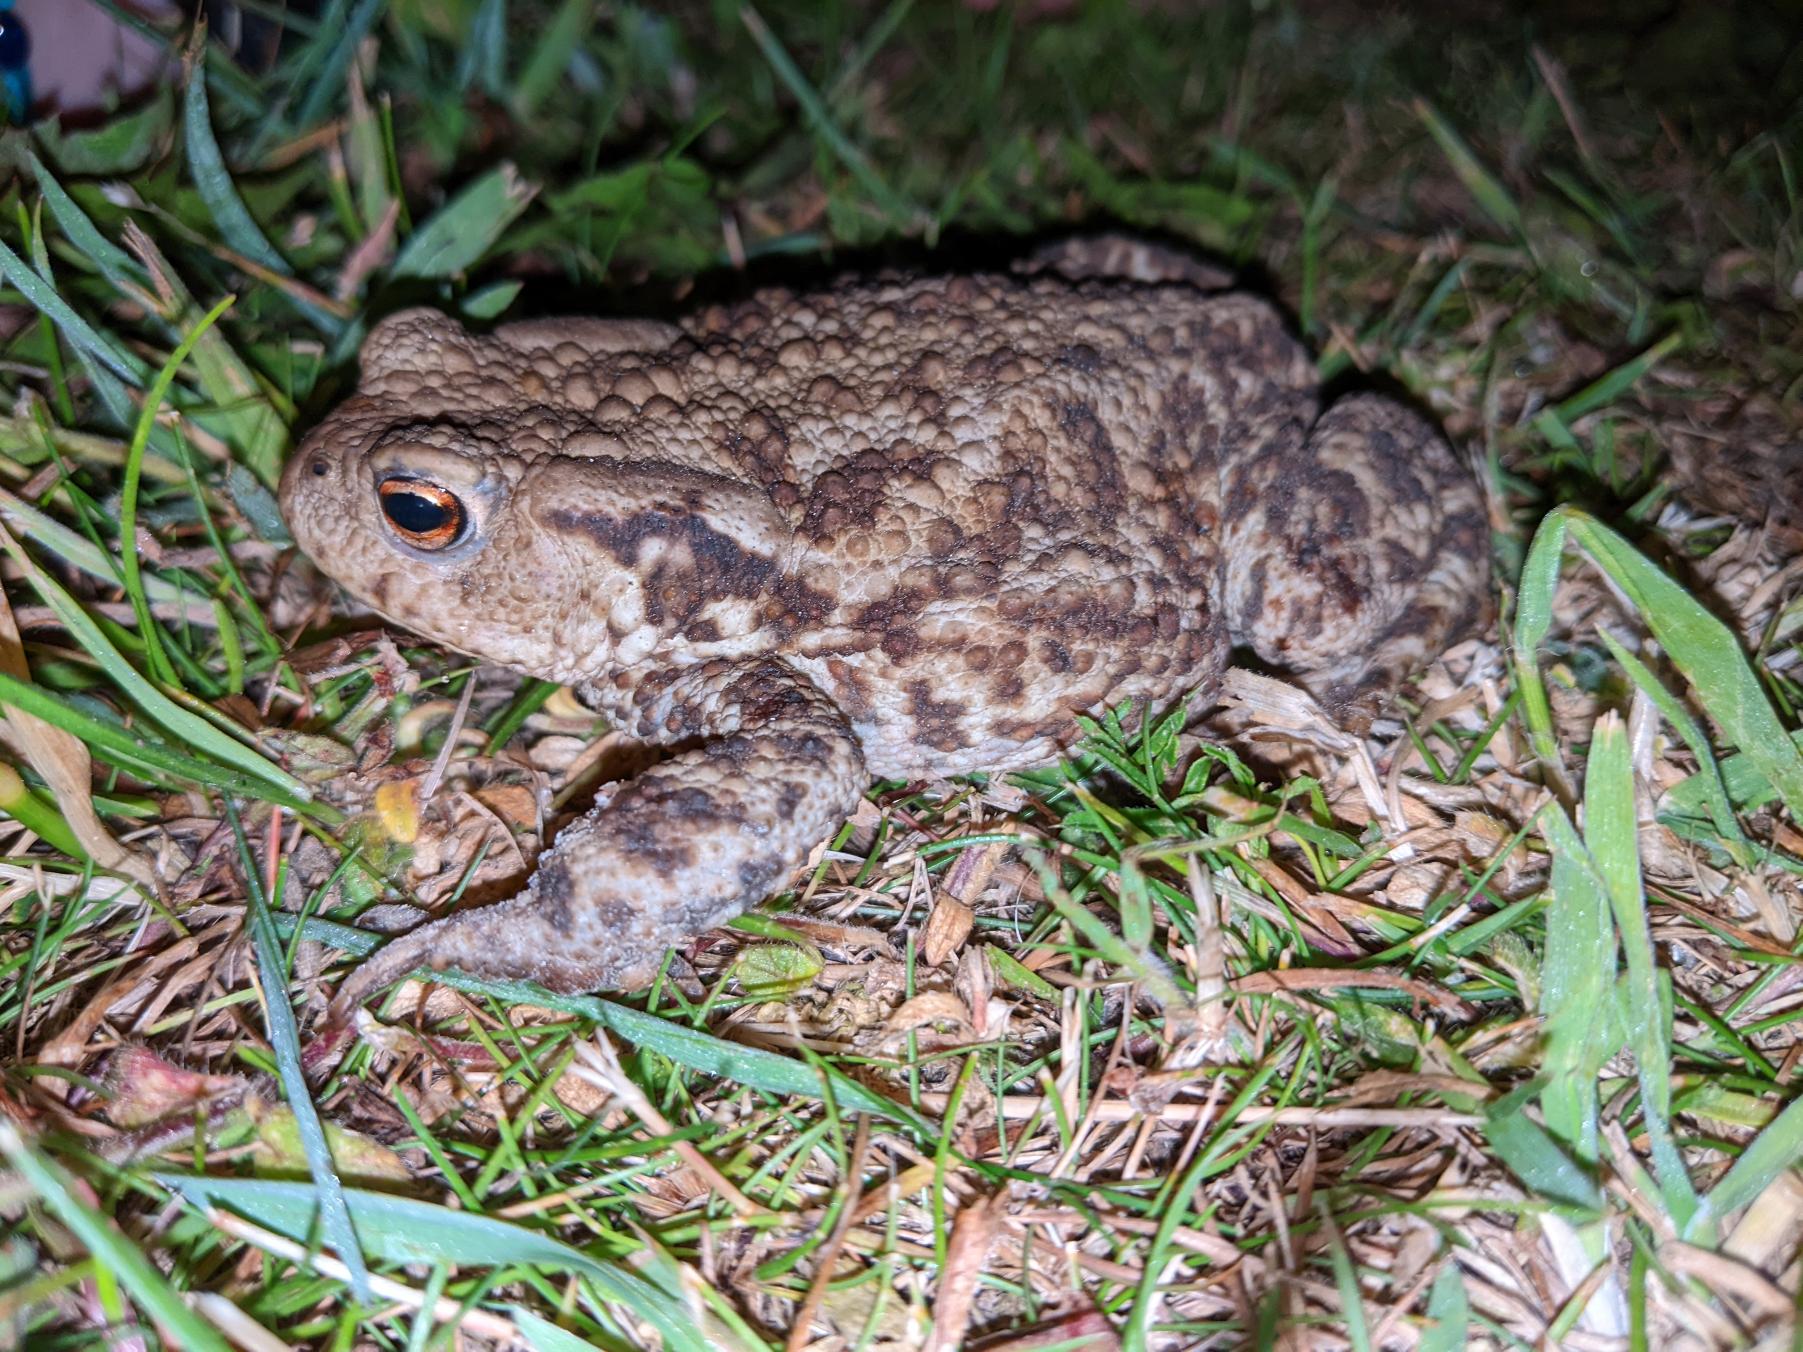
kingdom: Animalia
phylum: Chordata
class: Amphibia
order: Anura
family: Bufonidae
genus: Bufo
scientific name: Bufo bufo
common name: Skrubtudse
